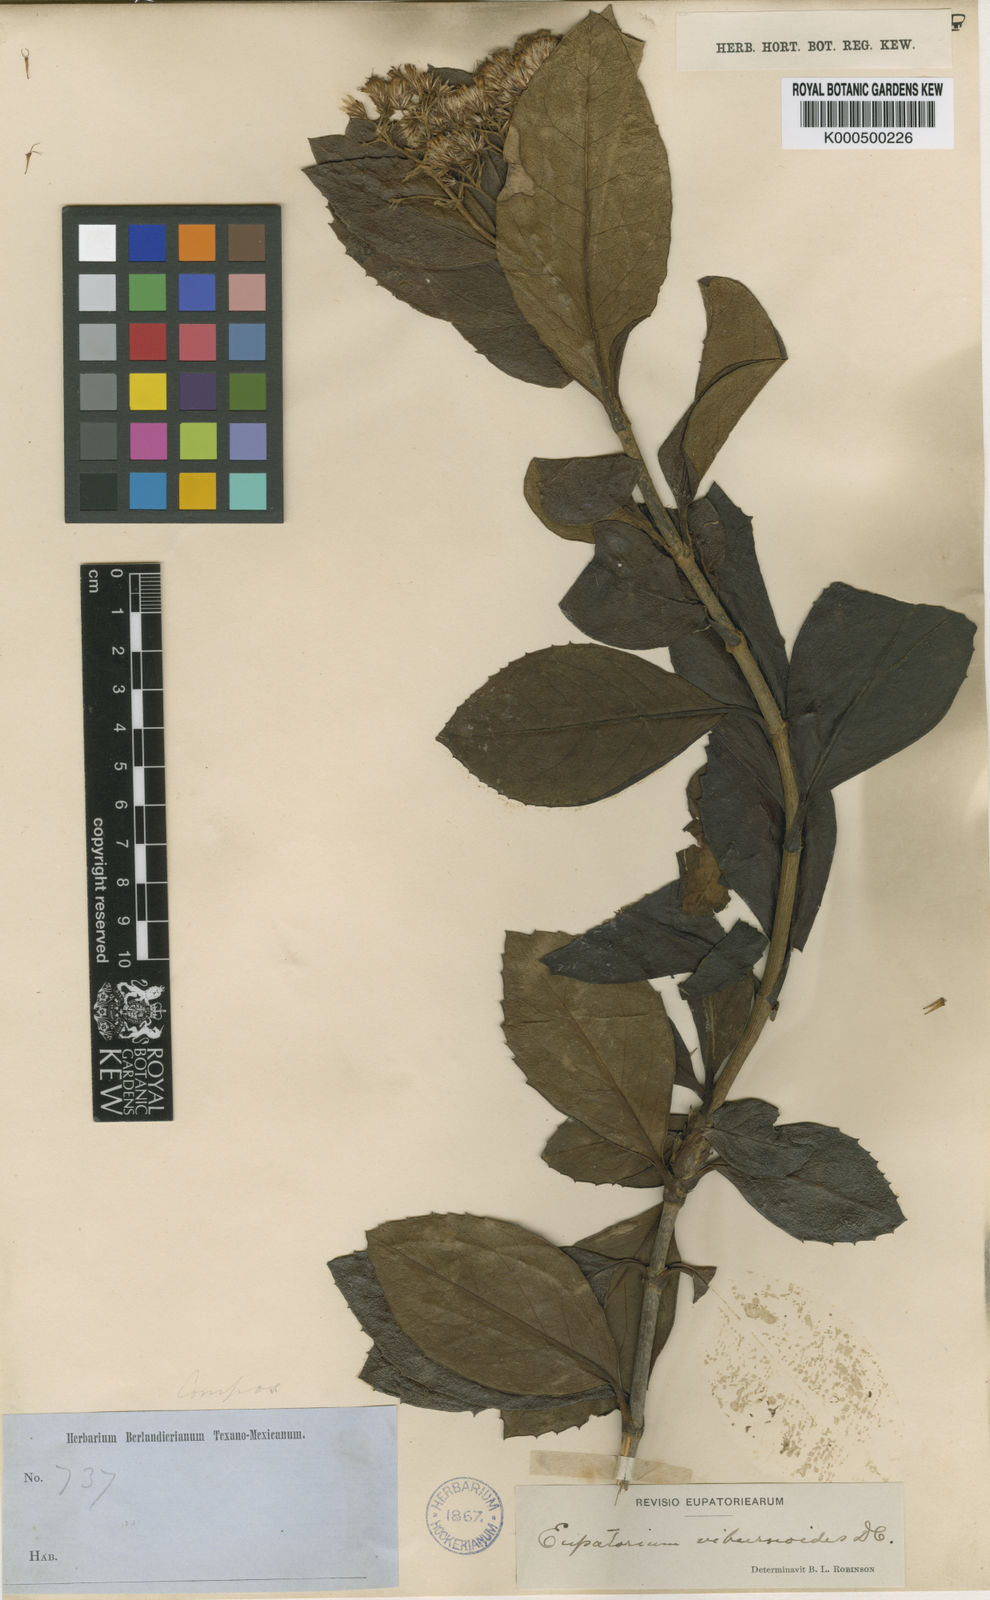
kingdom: Plantae
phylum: Tracheophyta
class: Magnoliopsida
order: Asterales
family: Asteraceae
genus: Ageratina
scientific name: Ageratina viburnoides
